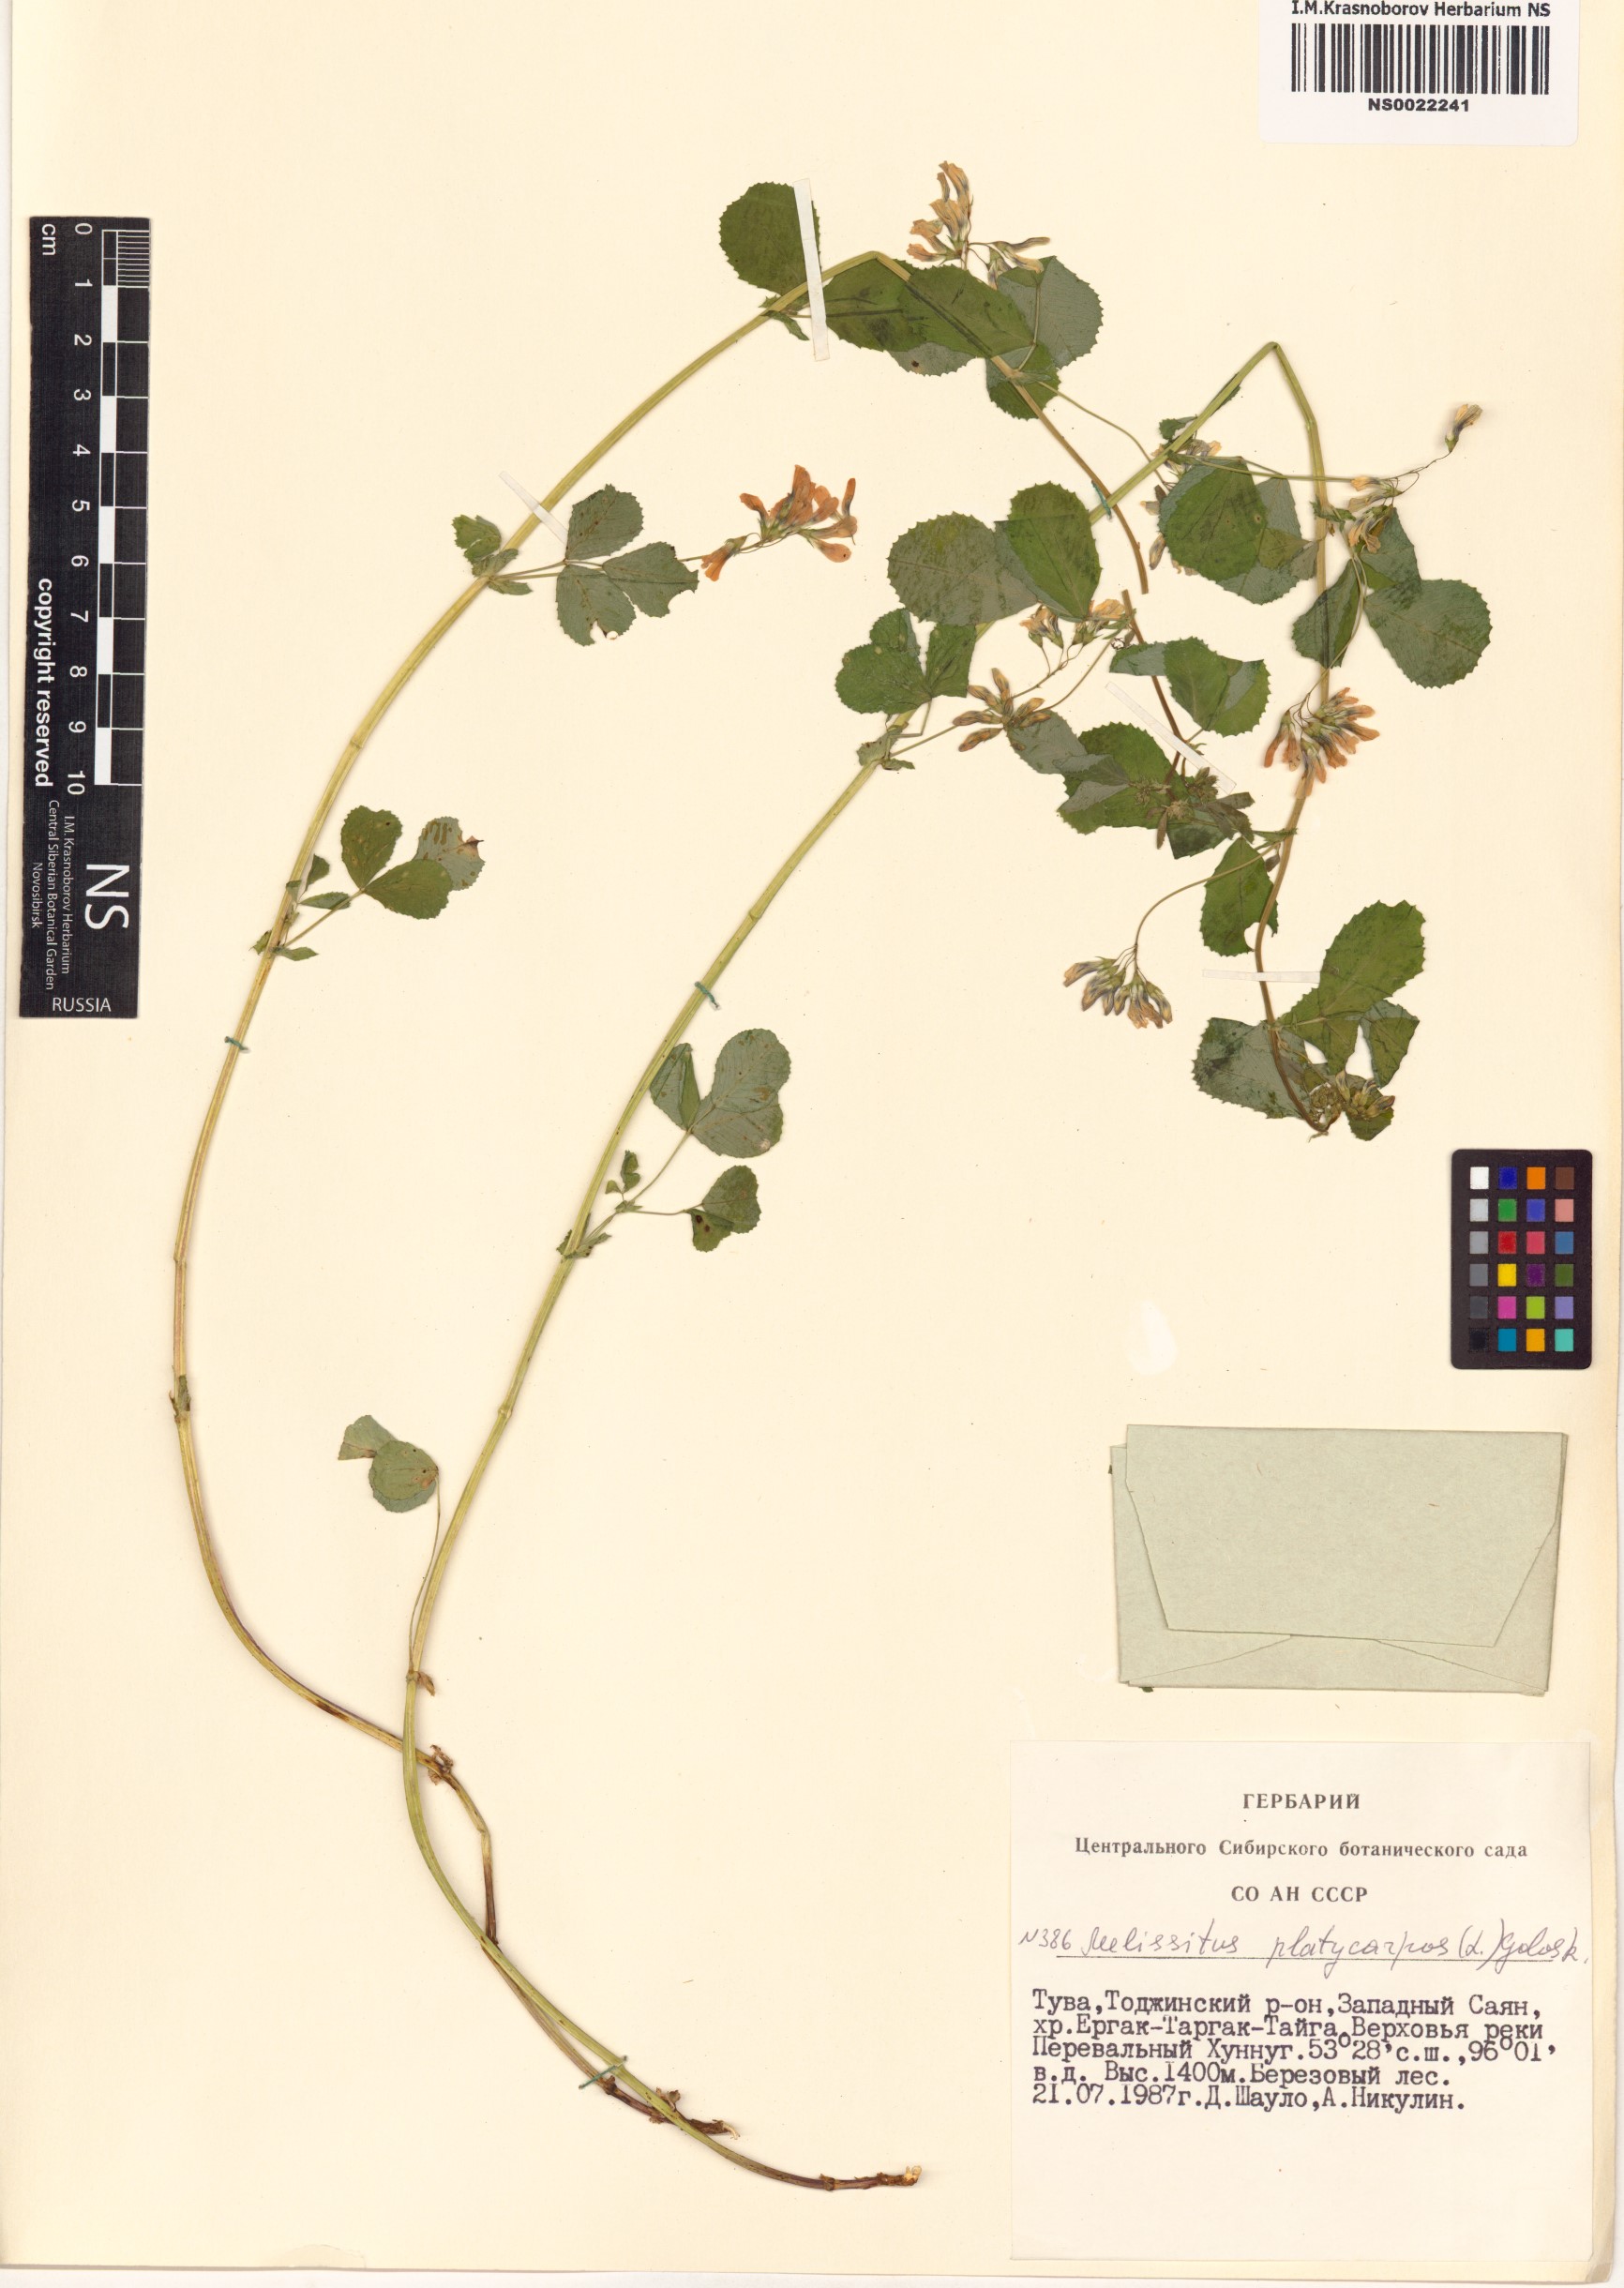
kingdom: Plantae
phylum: Tracheophyta
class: Magnoliopsida
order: Fabales
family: Fabaceae
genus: Medicago
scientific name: Medicago platycarpos
